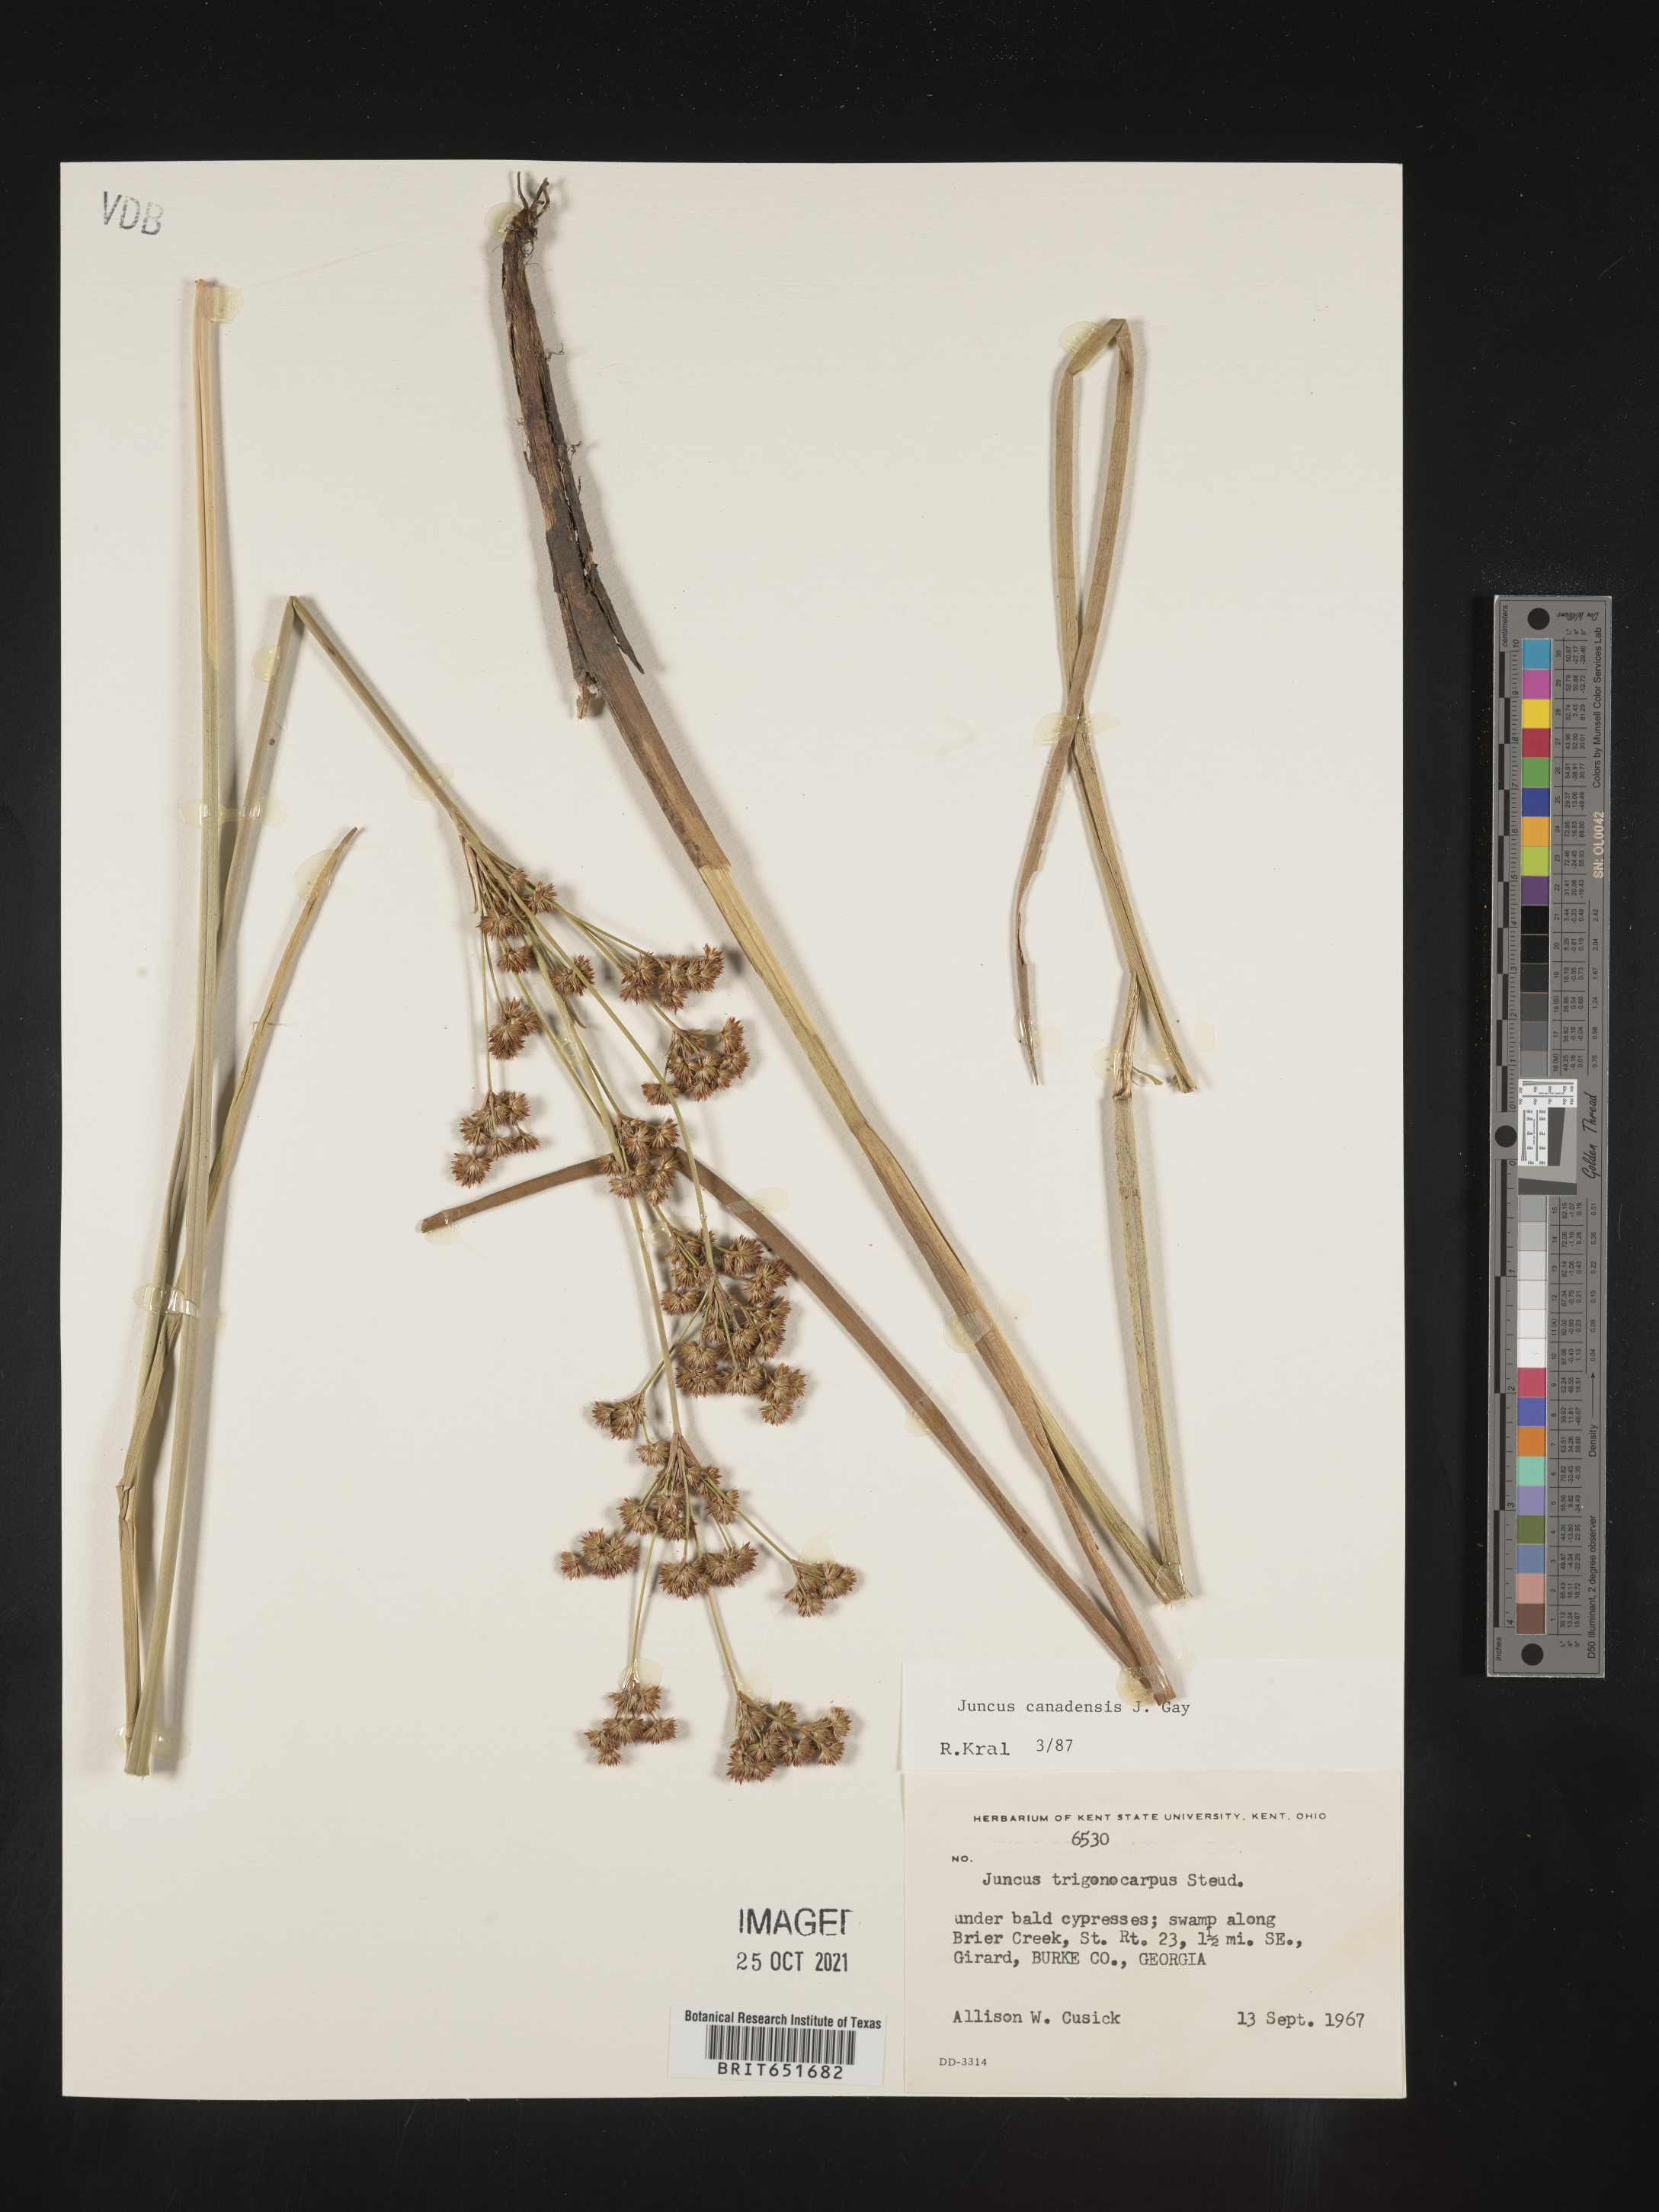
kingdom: Plantae
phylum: Tracheophyta
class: Liliopsida
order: Poales
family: Juncaceae
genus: Juncus
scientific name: Juncus canadensis
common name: Canada rush
